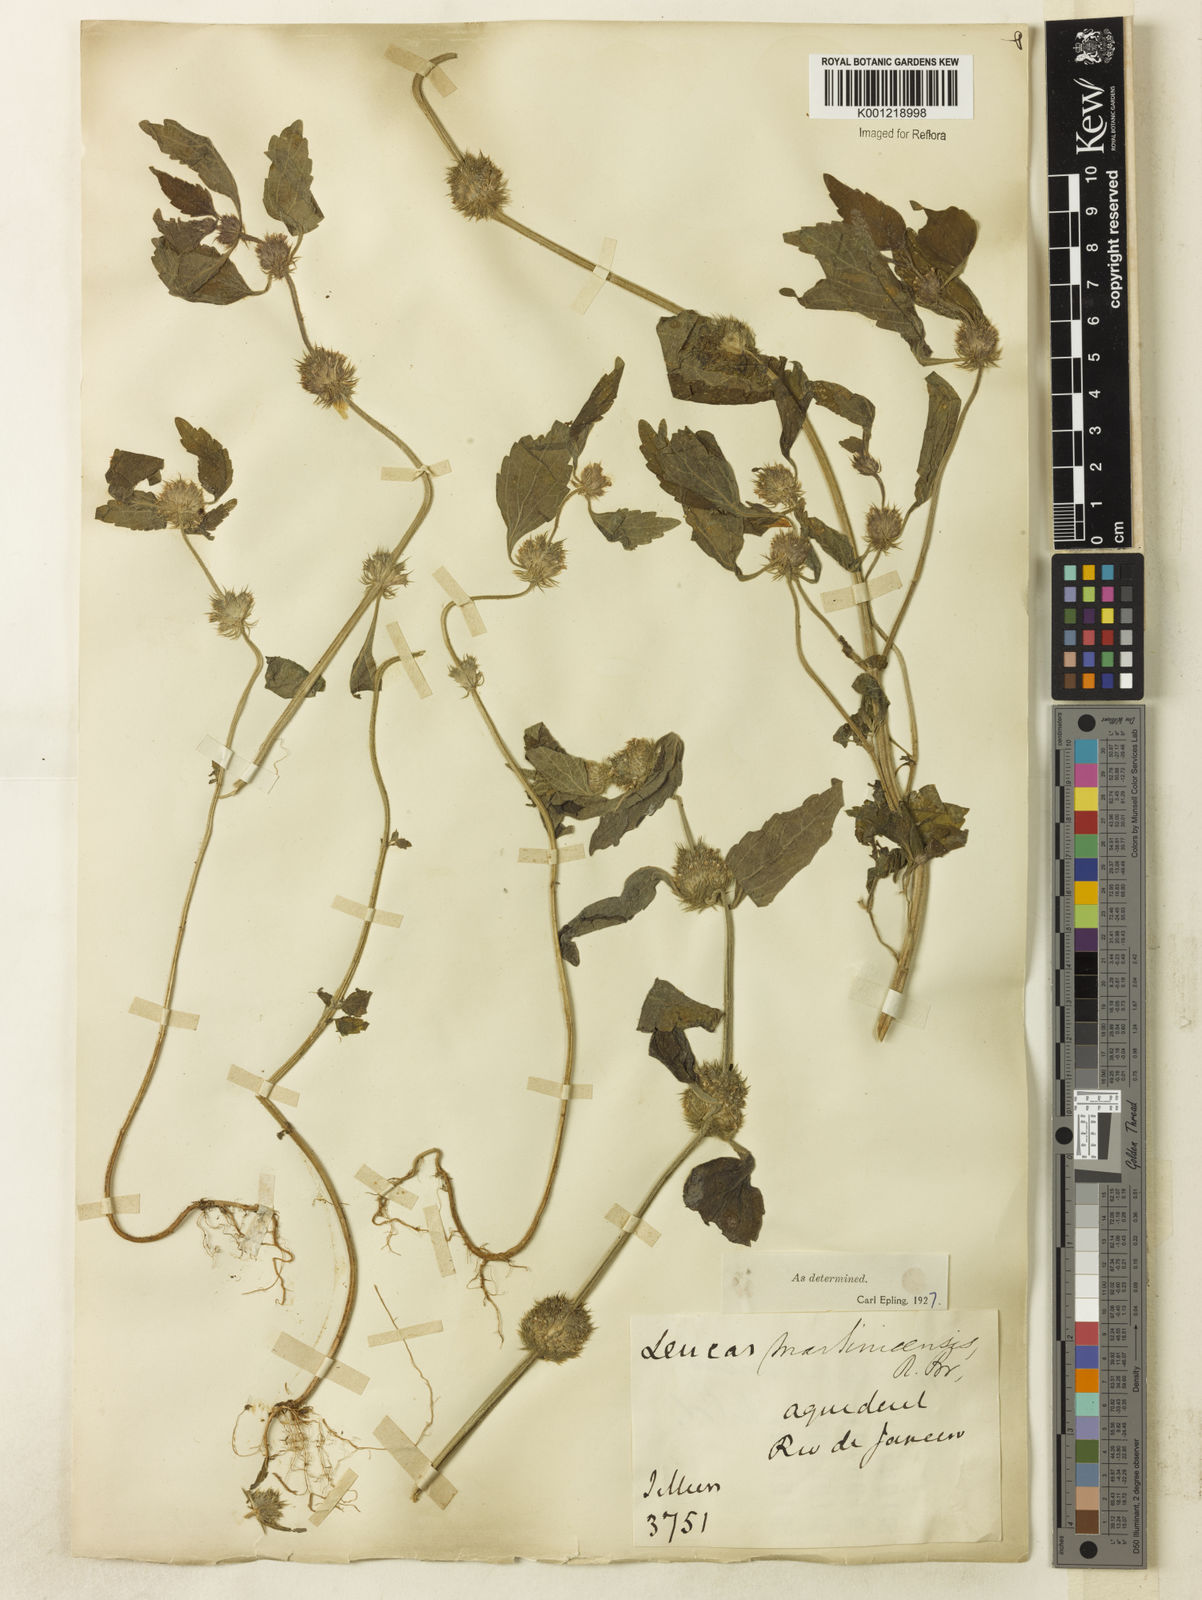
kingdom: Plantae
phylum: Tracheophyta
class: Magnoliopsida
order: Lamiales
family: Lamiaceae
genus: Leucas
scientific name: Leucas martinicensis
